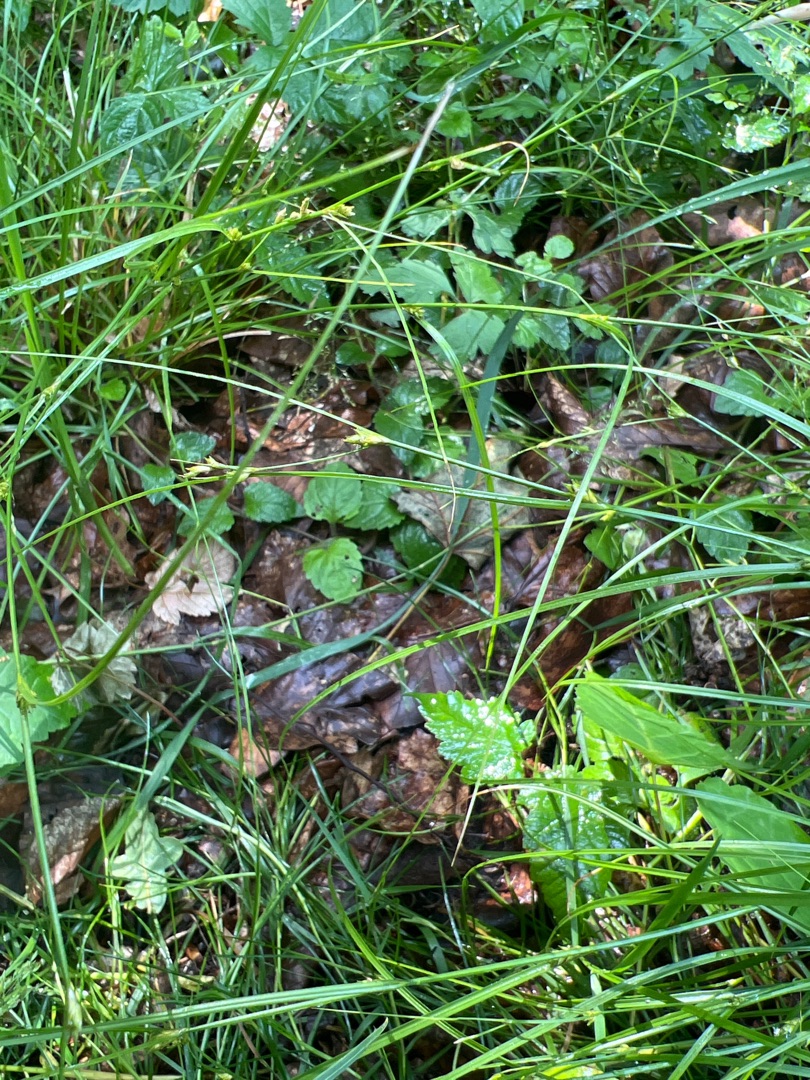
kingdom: Plantae
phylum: Tracheophyta
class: Liliopsida
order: Poales
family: Cyperaceae
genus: Carex
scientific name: Carex remota
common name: Akselblomstret star
